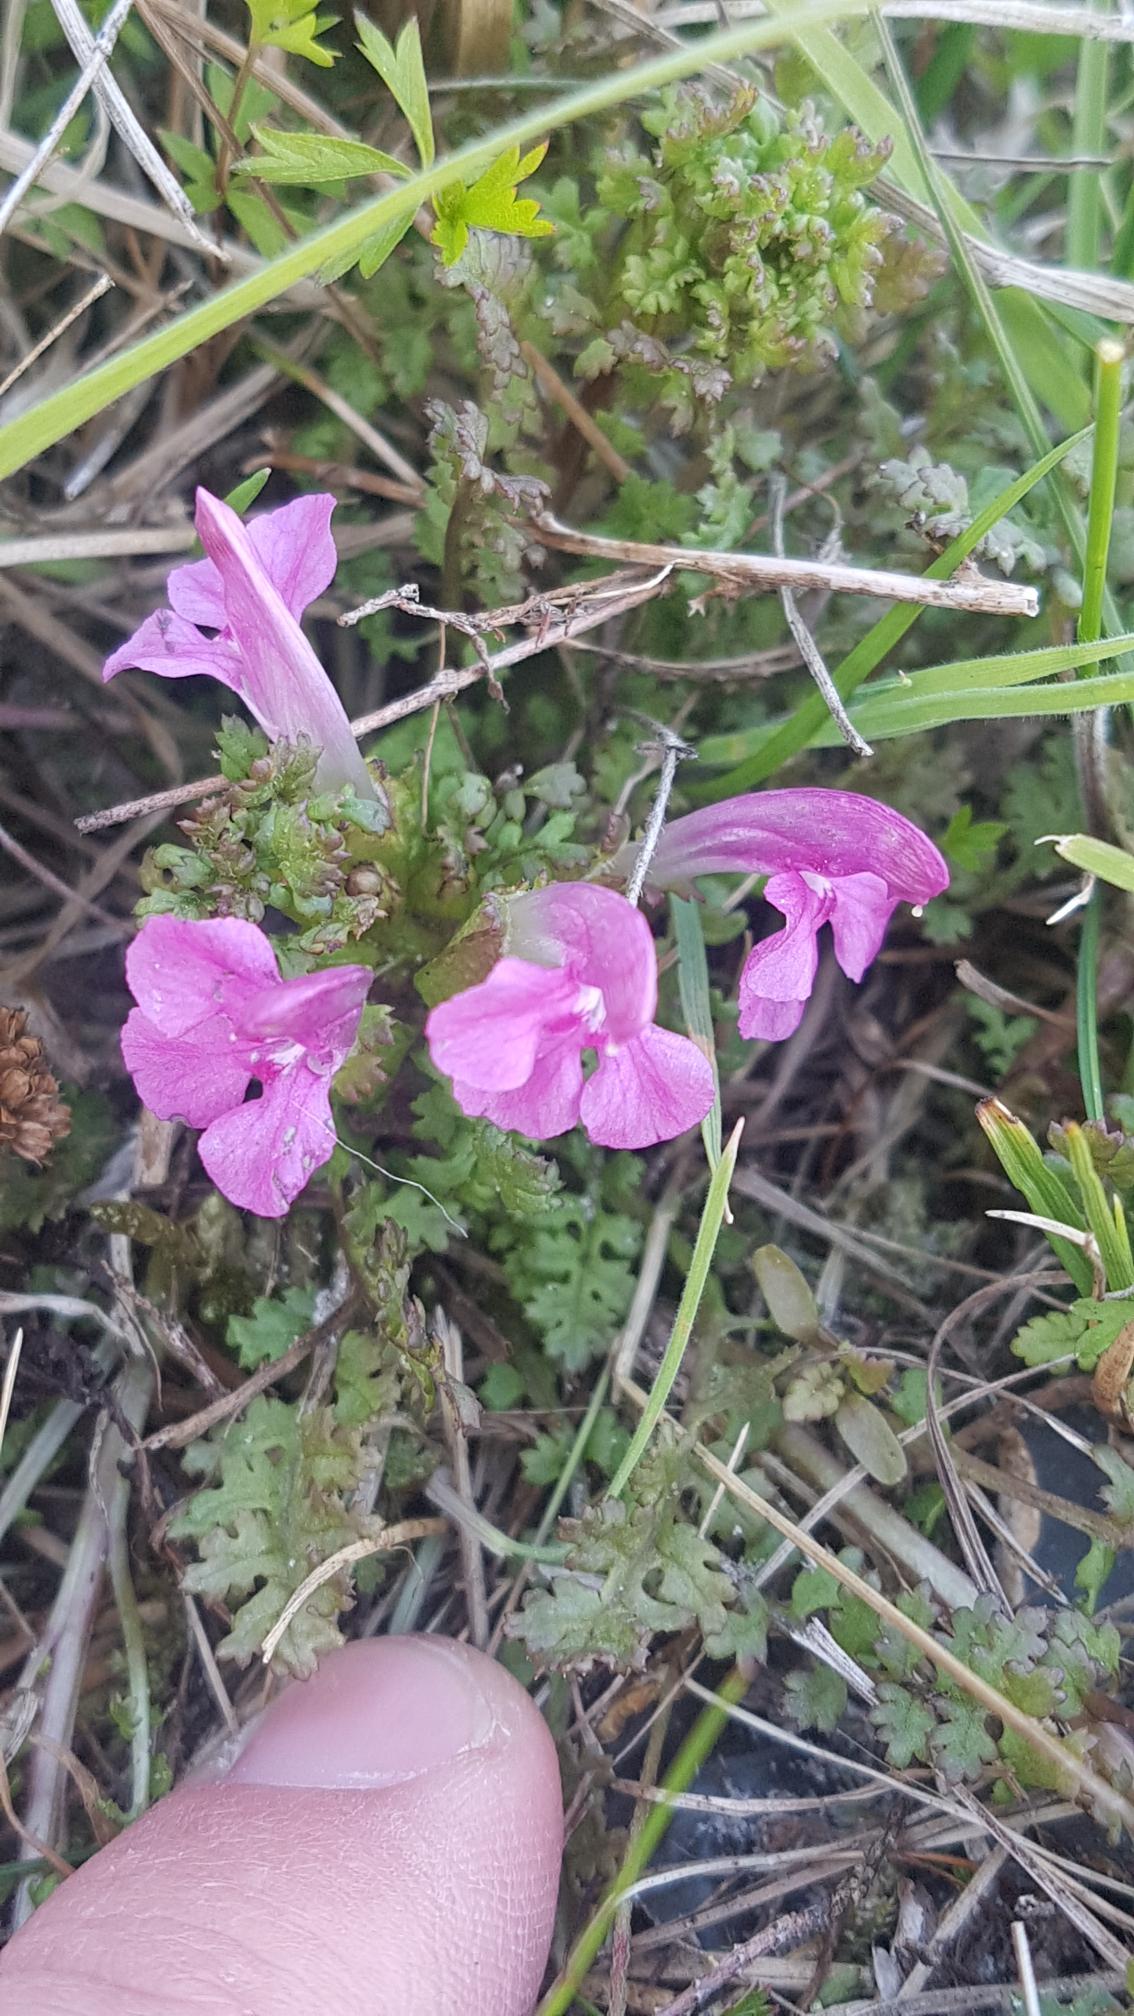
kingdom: Plantae
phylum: Tracheophyta
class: Magnoliopsida
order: Lamiales
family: Orobanchaceae
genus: Pedicularis
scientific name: Pedicularis sylvatica
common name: Mose-troldurt
